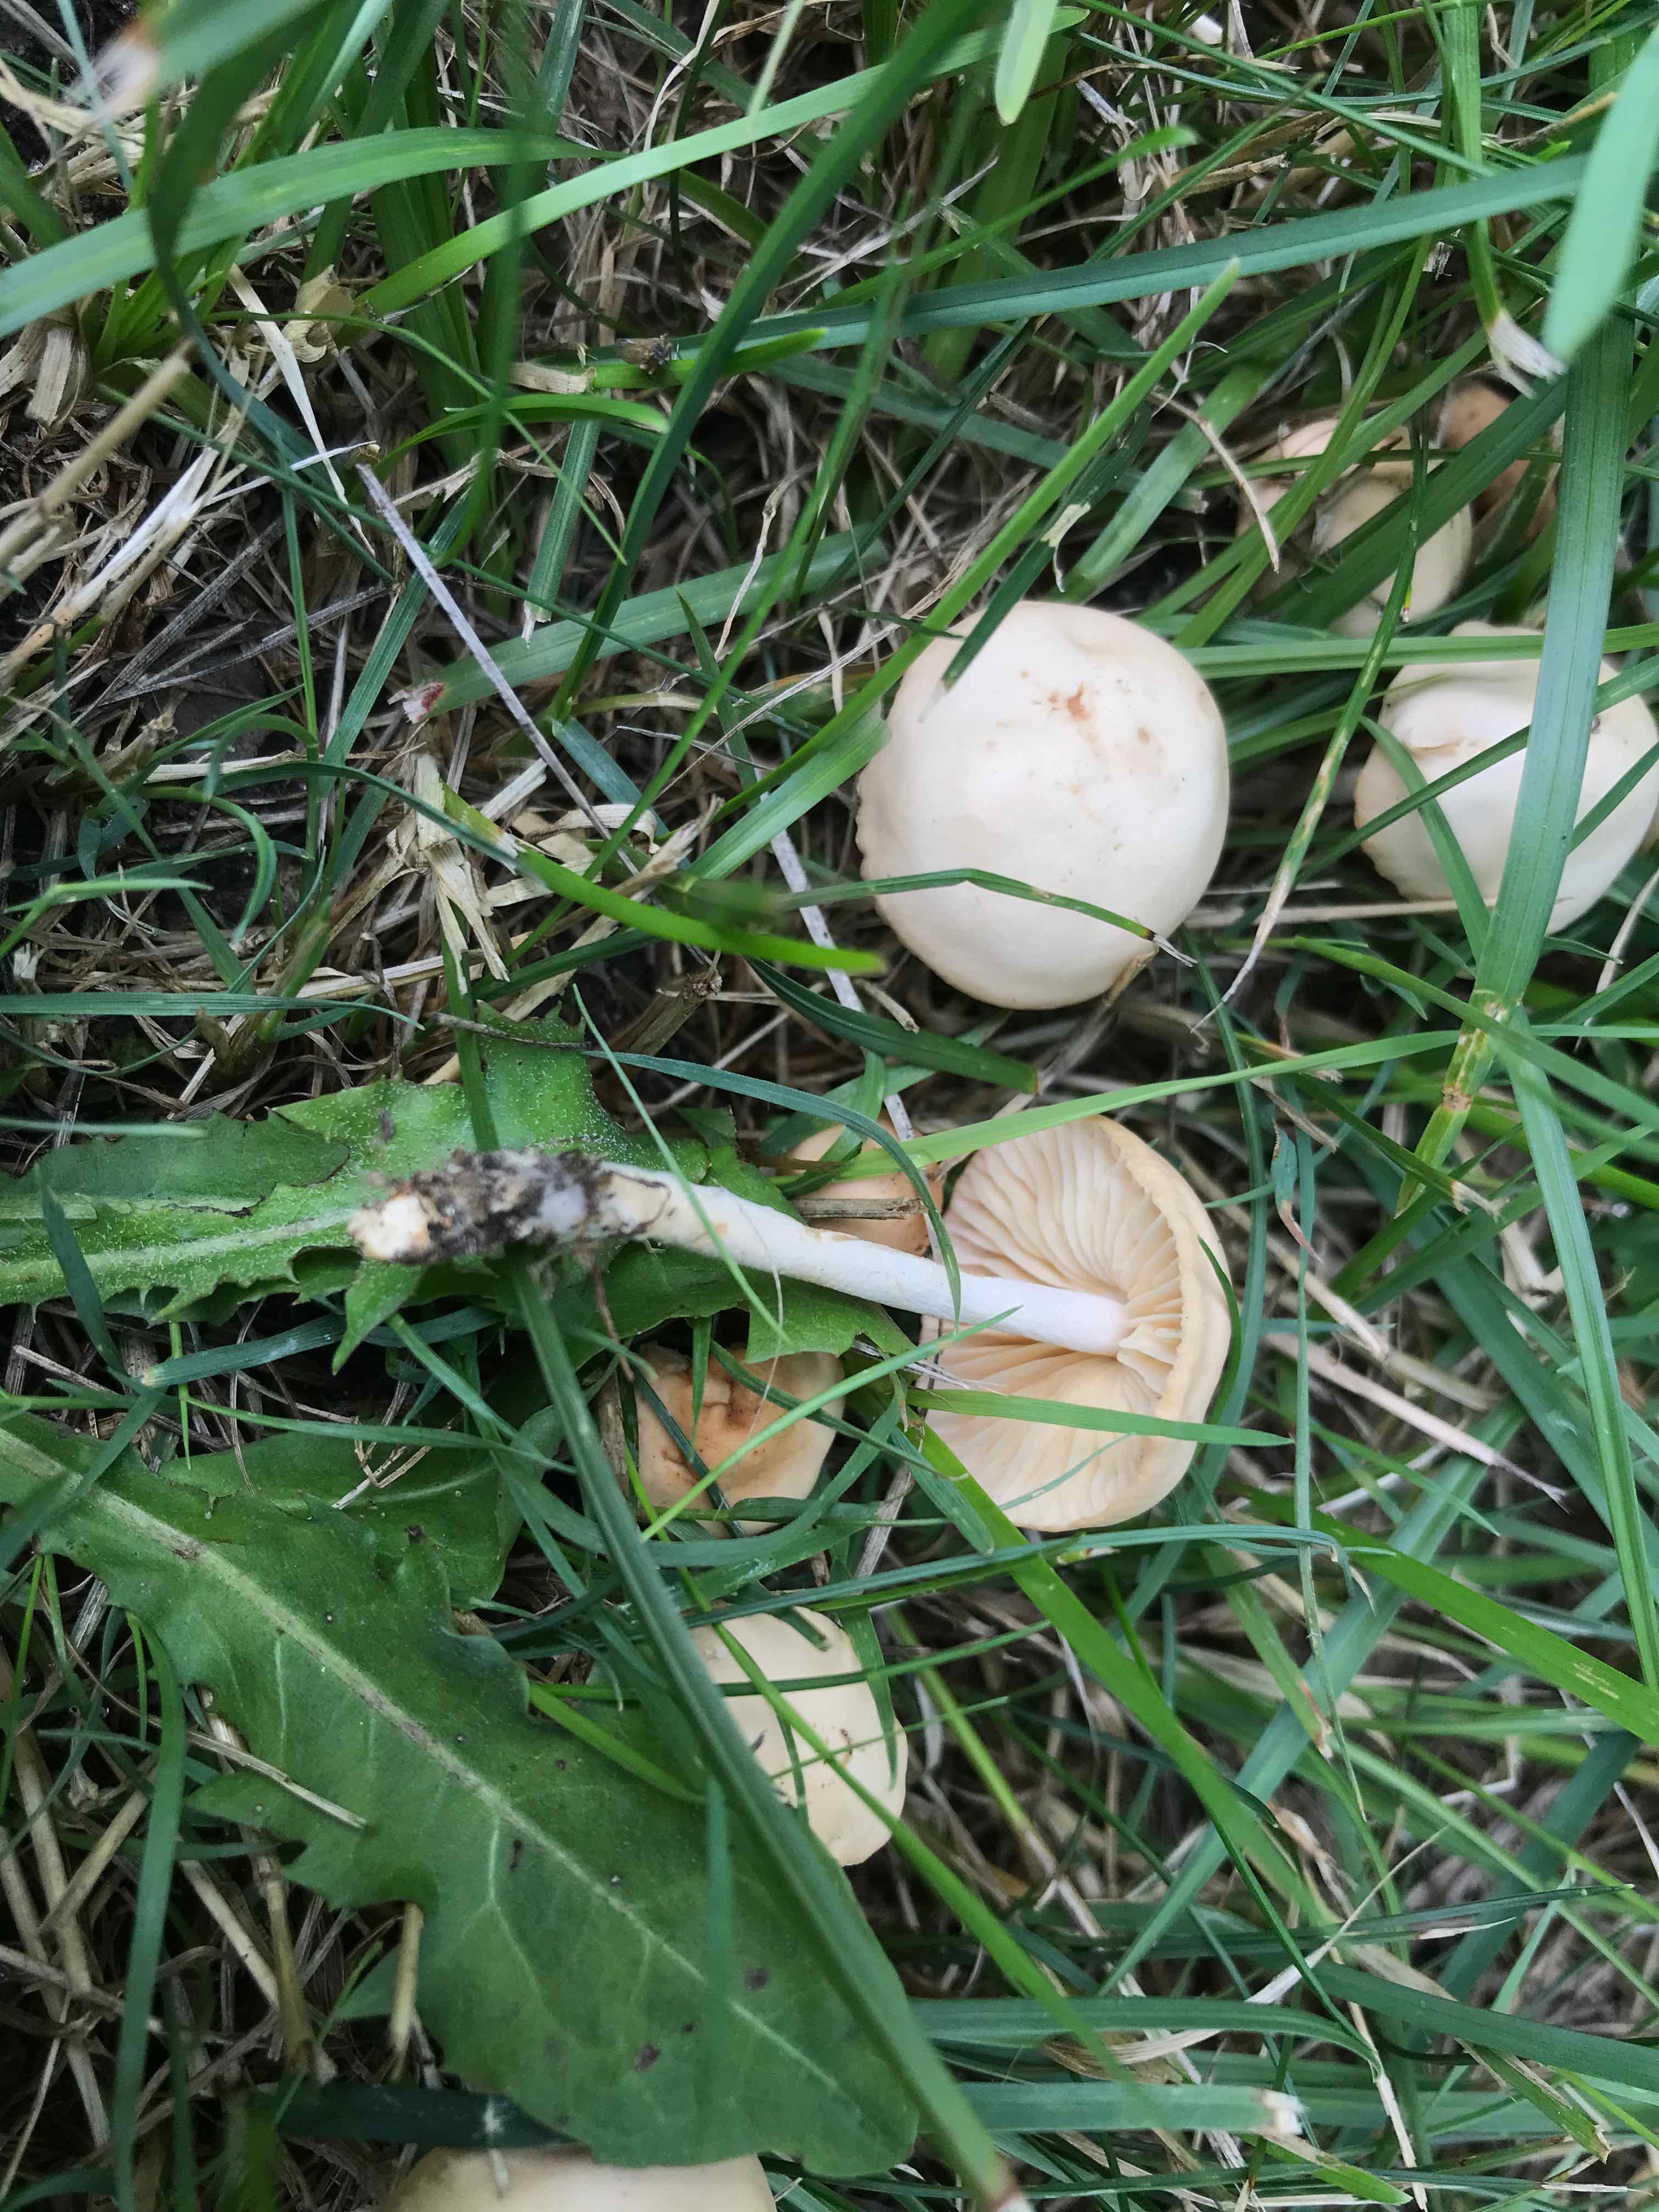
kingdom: Fungi
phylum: Basidiomycota
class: Agaricomycetes
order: Agaricales
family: Marasmiaceae
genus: Marasmius
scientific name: Marasmius oreades
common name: elledans-bruskhat
